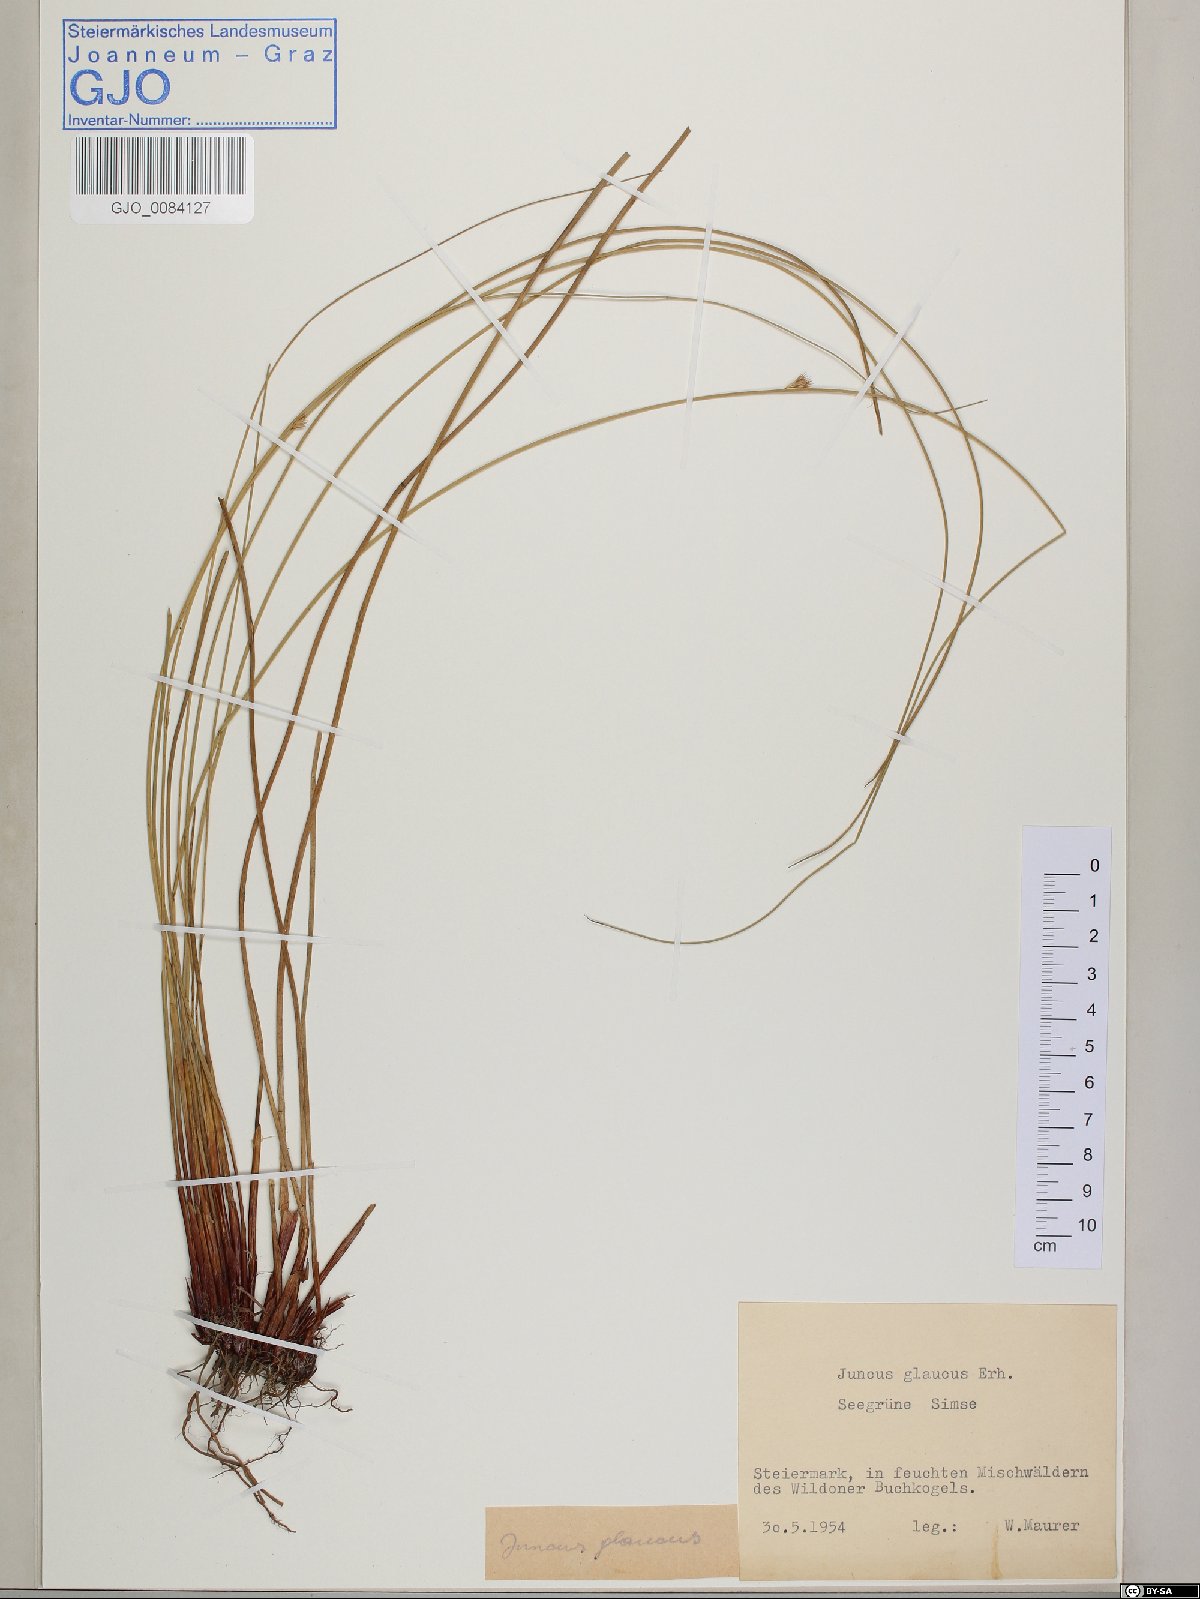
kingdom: Plantae
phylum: Tracheophyta
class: Liliopsida
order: Poales
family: Juncaceae
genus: Juncus
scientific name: Juncus inflexus
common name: Hard rush
